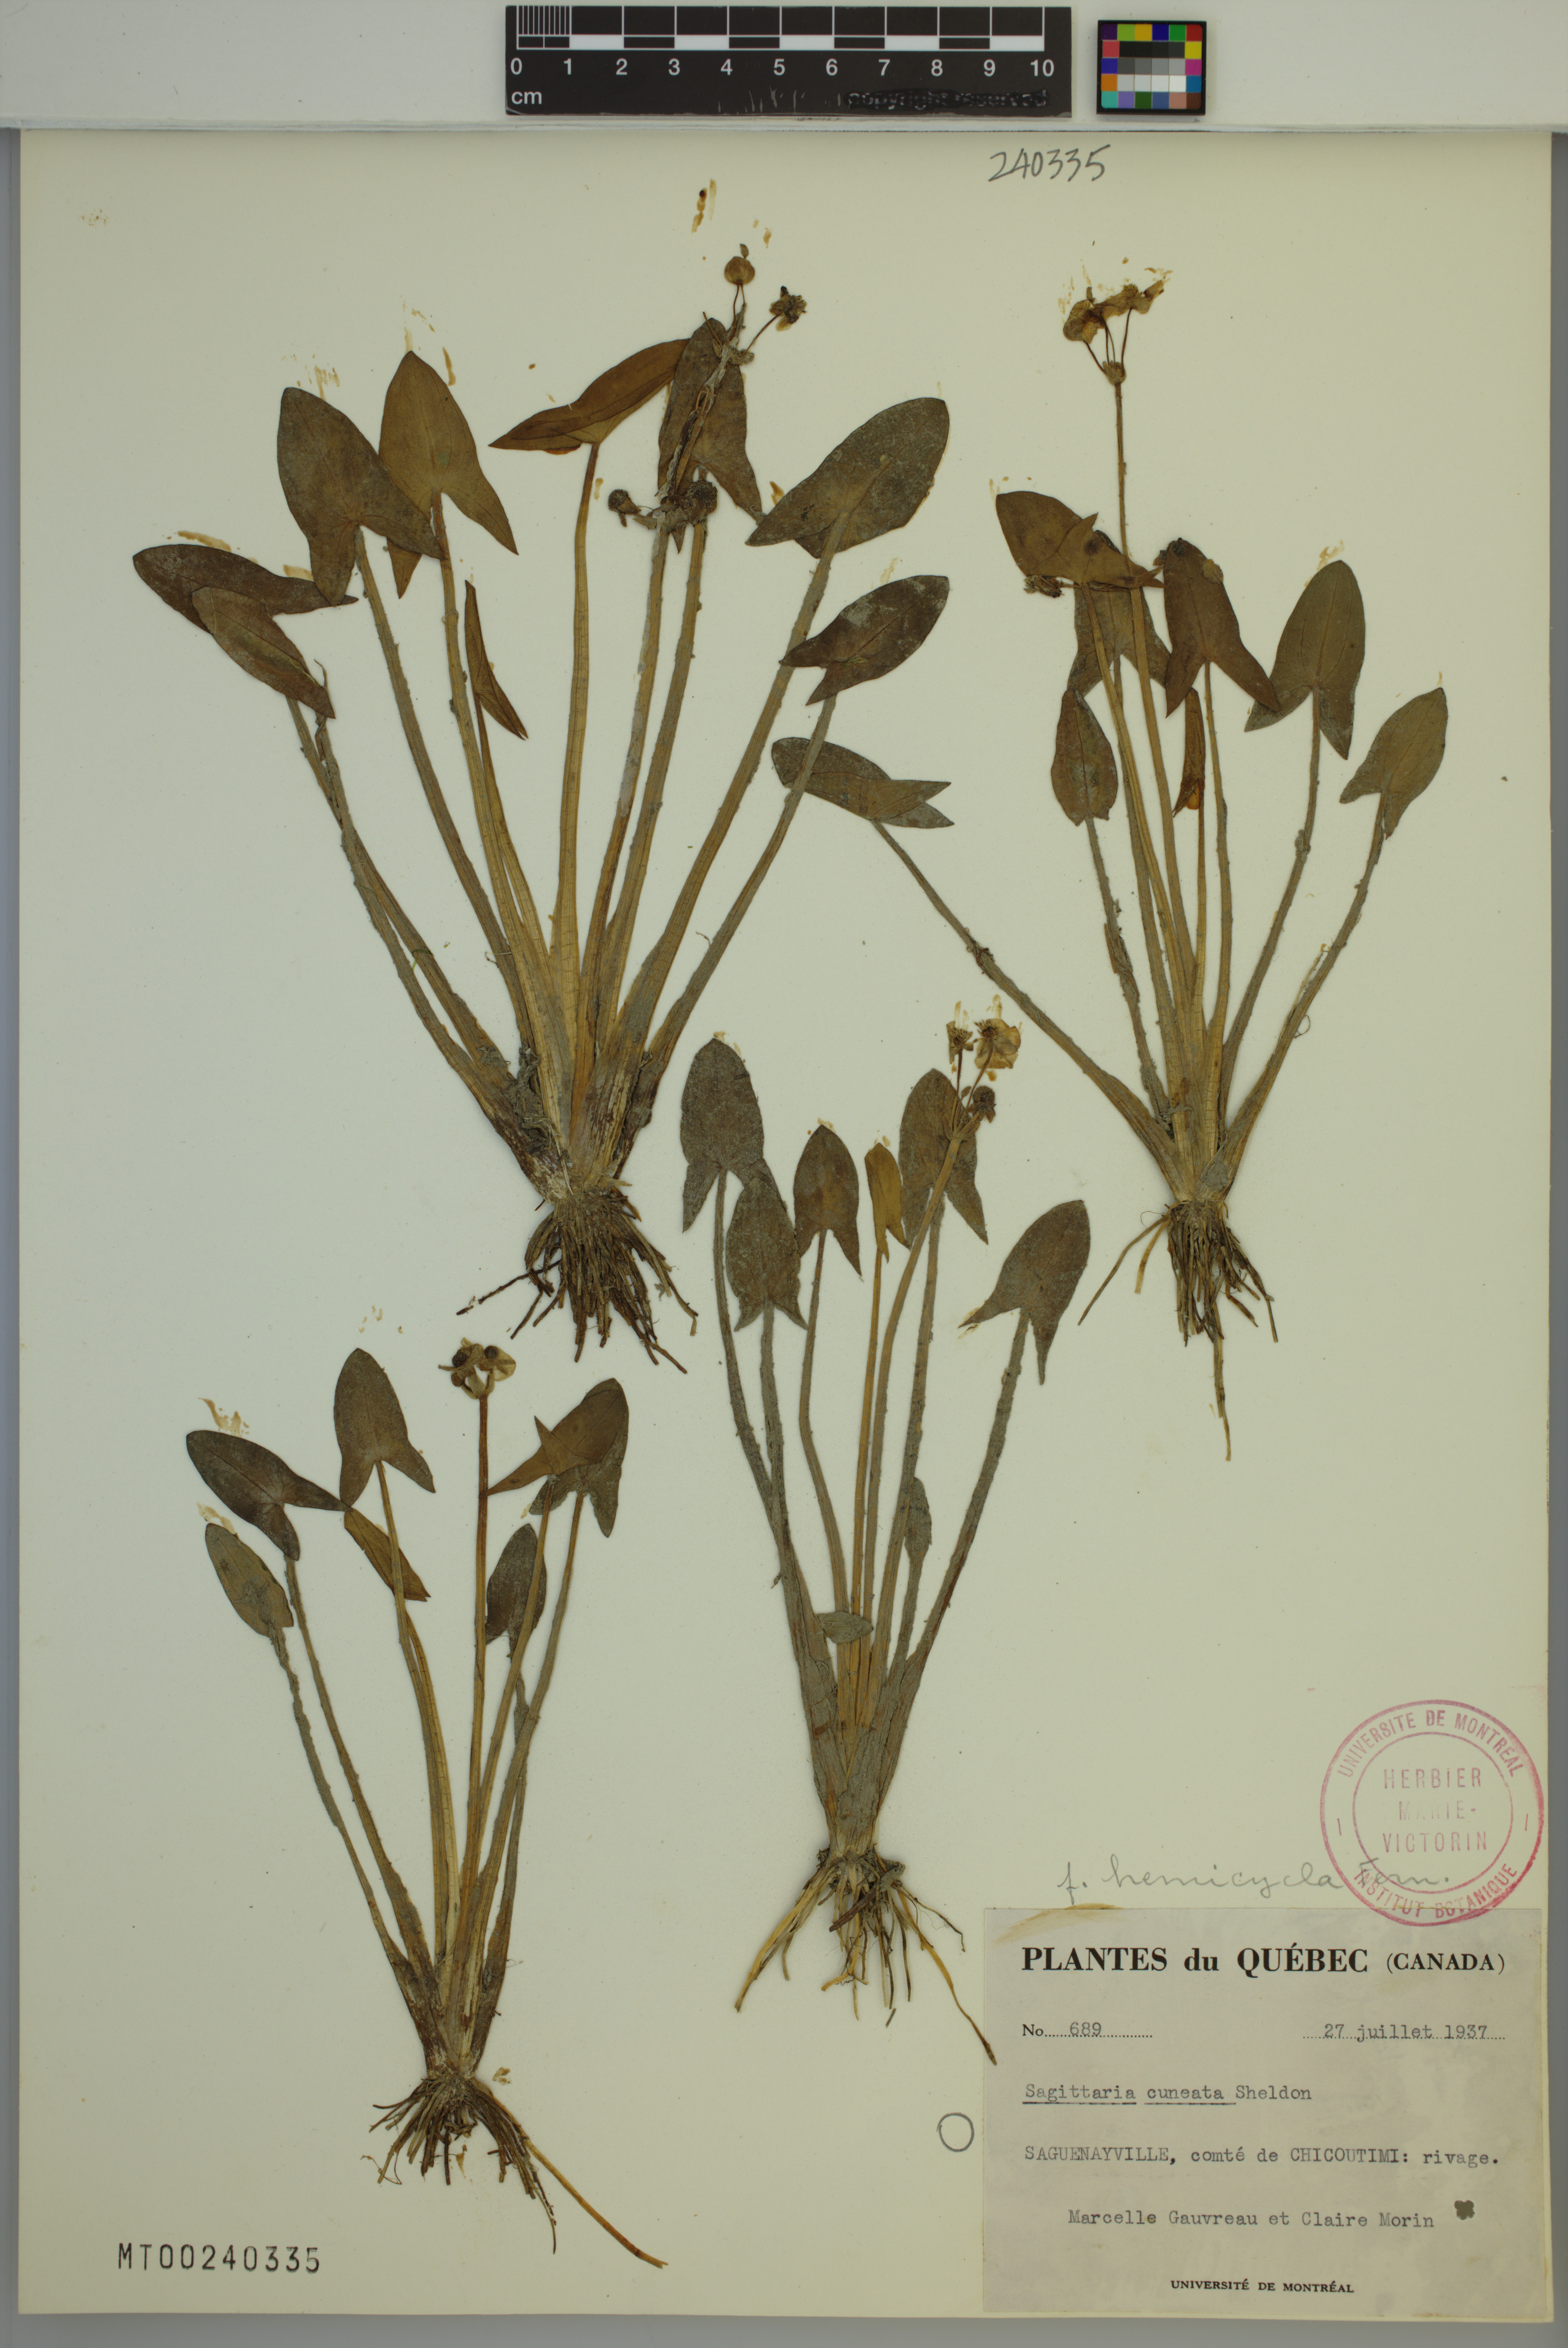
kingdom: Plantae
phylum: Tracheophyta
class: Liliopsida
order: Alismatales
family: Alismataceae
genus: Sagittaria
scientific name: Sagittaria cuneata
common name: Northern arrowhead
